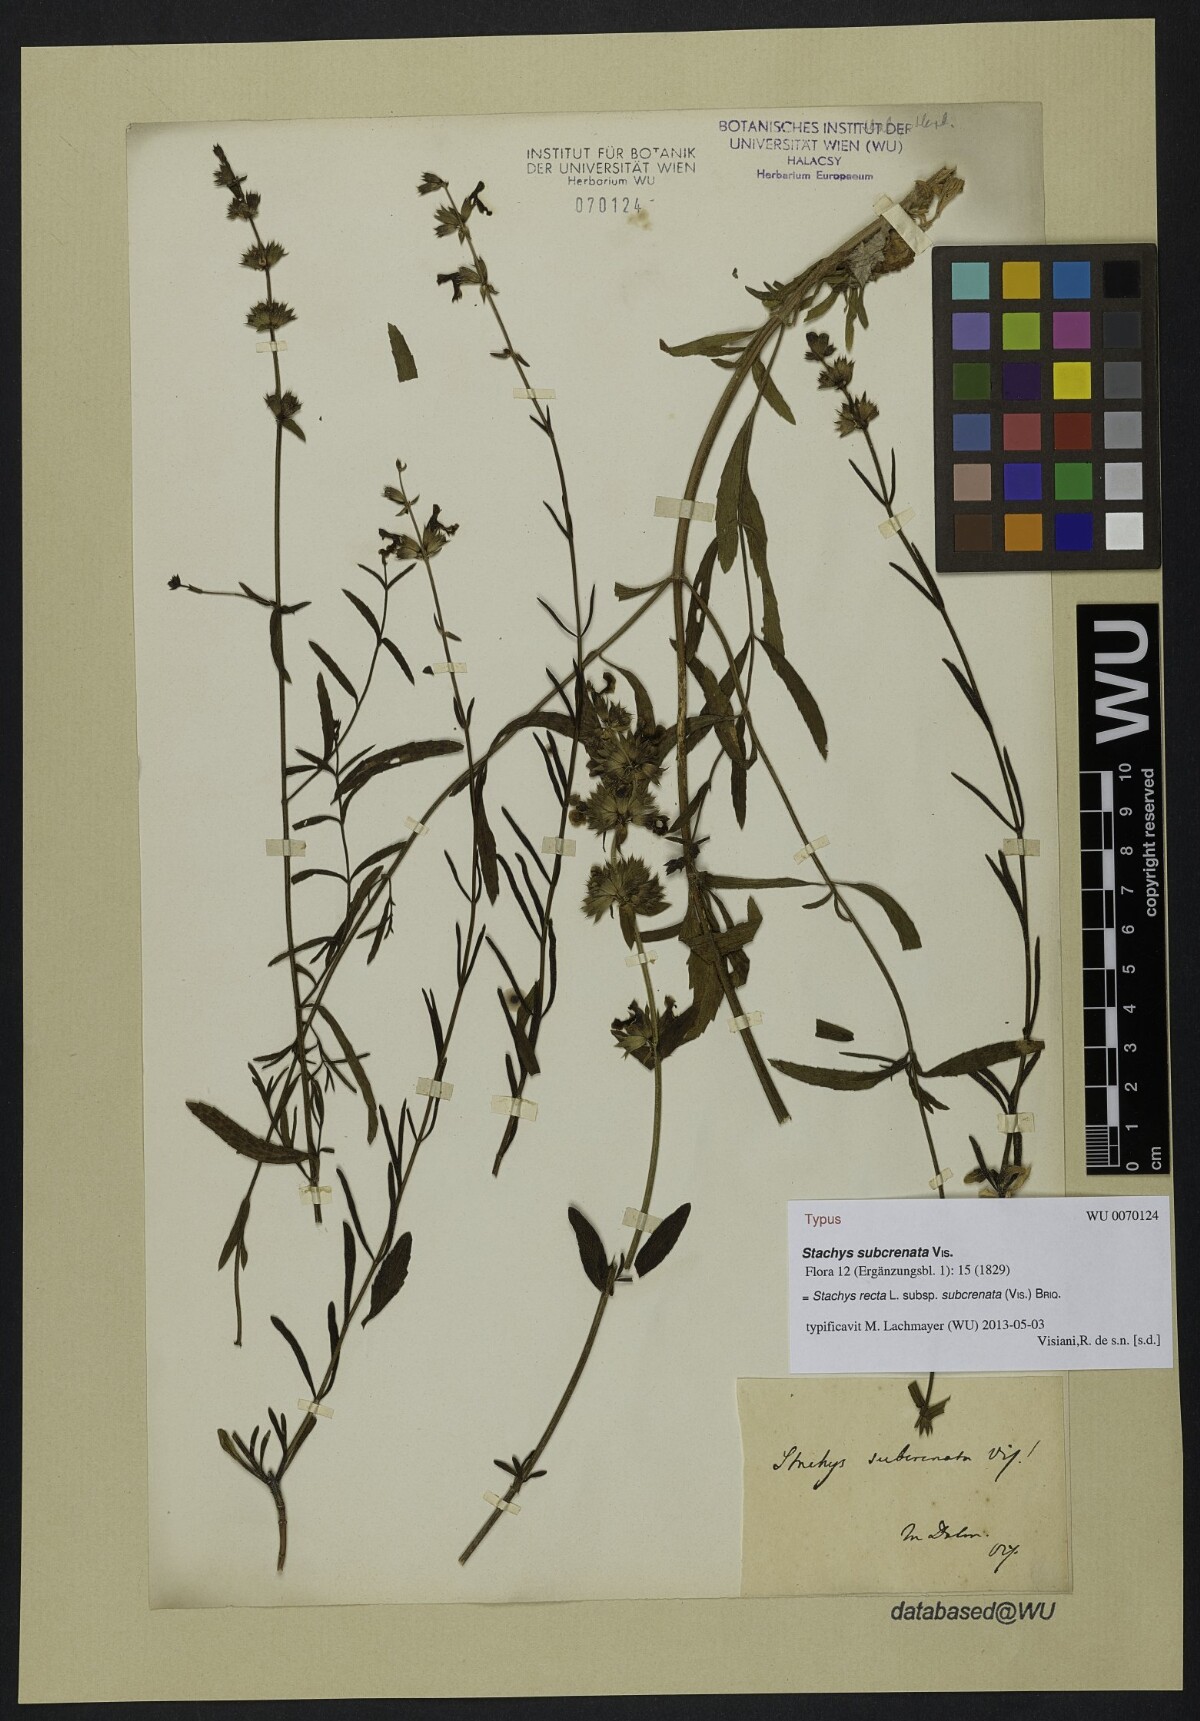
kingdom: Plantae
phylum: Tracheophyta
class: Magnoliopsida
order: Lamiales
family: Lamiaceae
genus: Stachys
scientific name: Stachys recta
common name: Perennial yellow-woundwort
